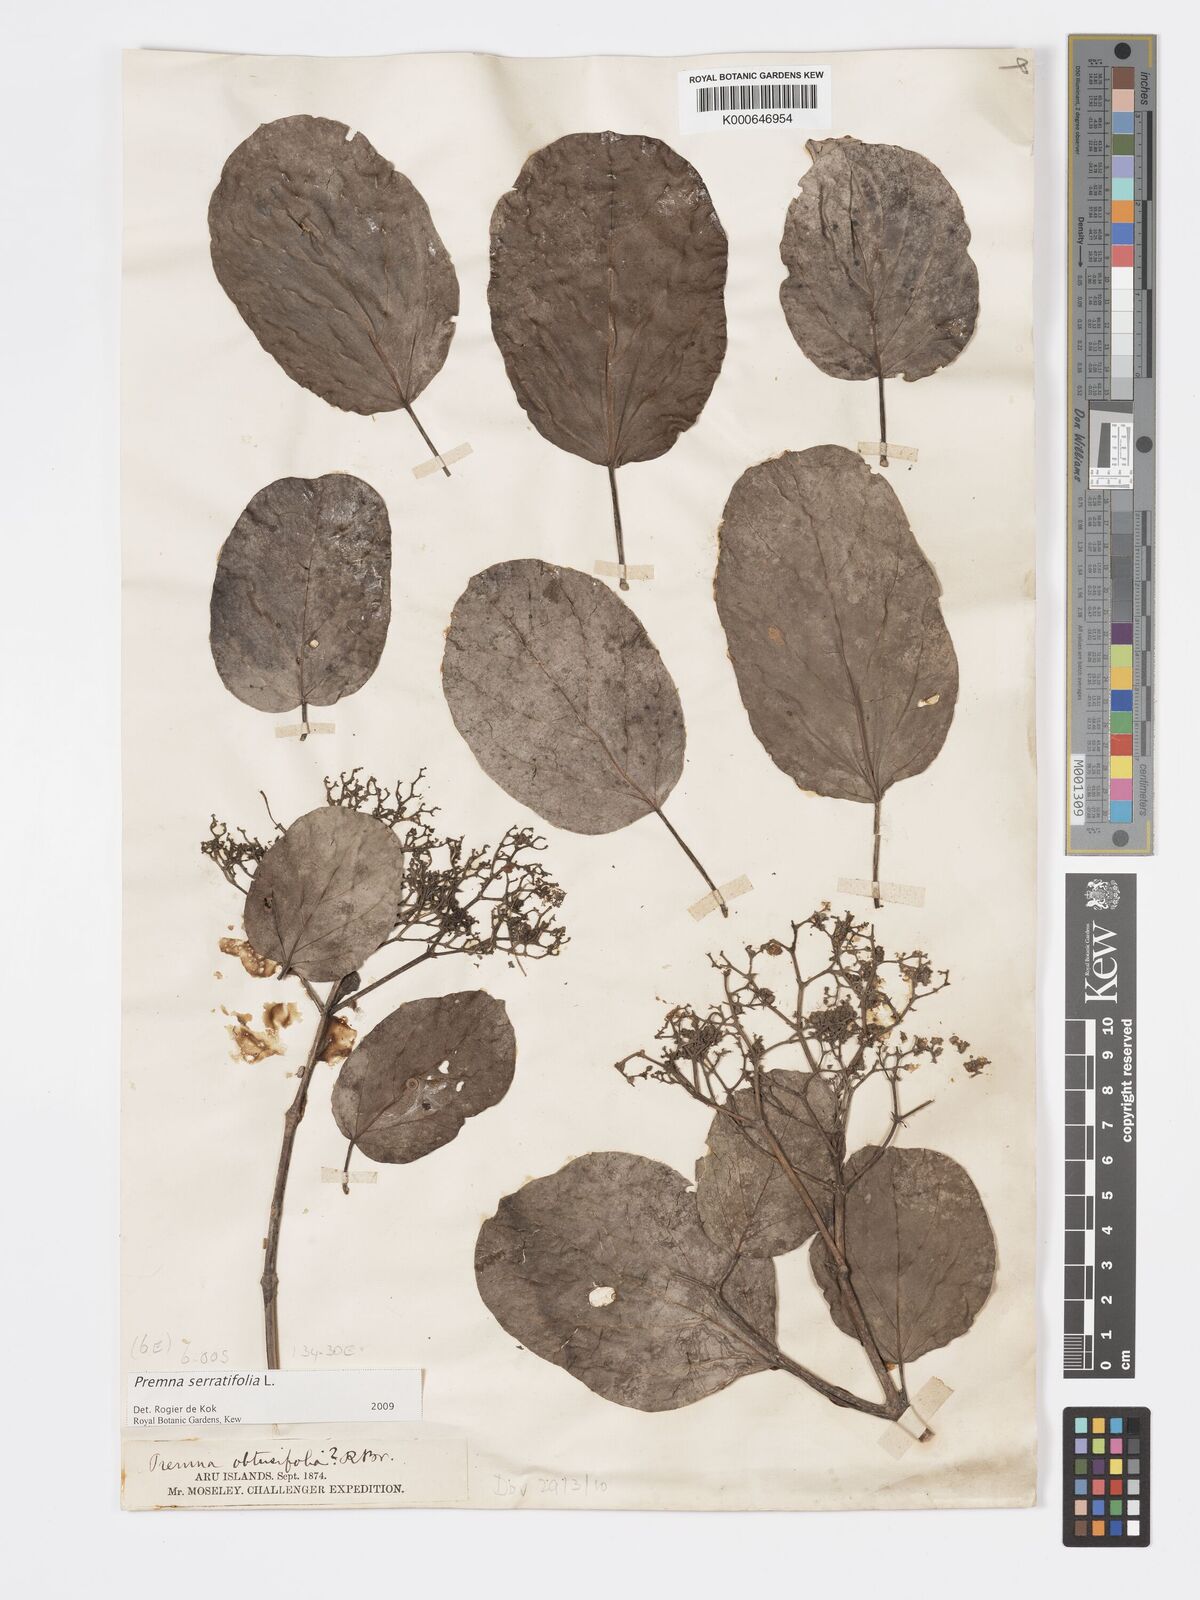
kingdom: Plantae
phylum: Tracheophyta
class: Magnoliopsida
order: Lamiales
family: Lamiaceae
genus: Premna
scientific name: Premna serratifolia
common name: Bastard guelder
